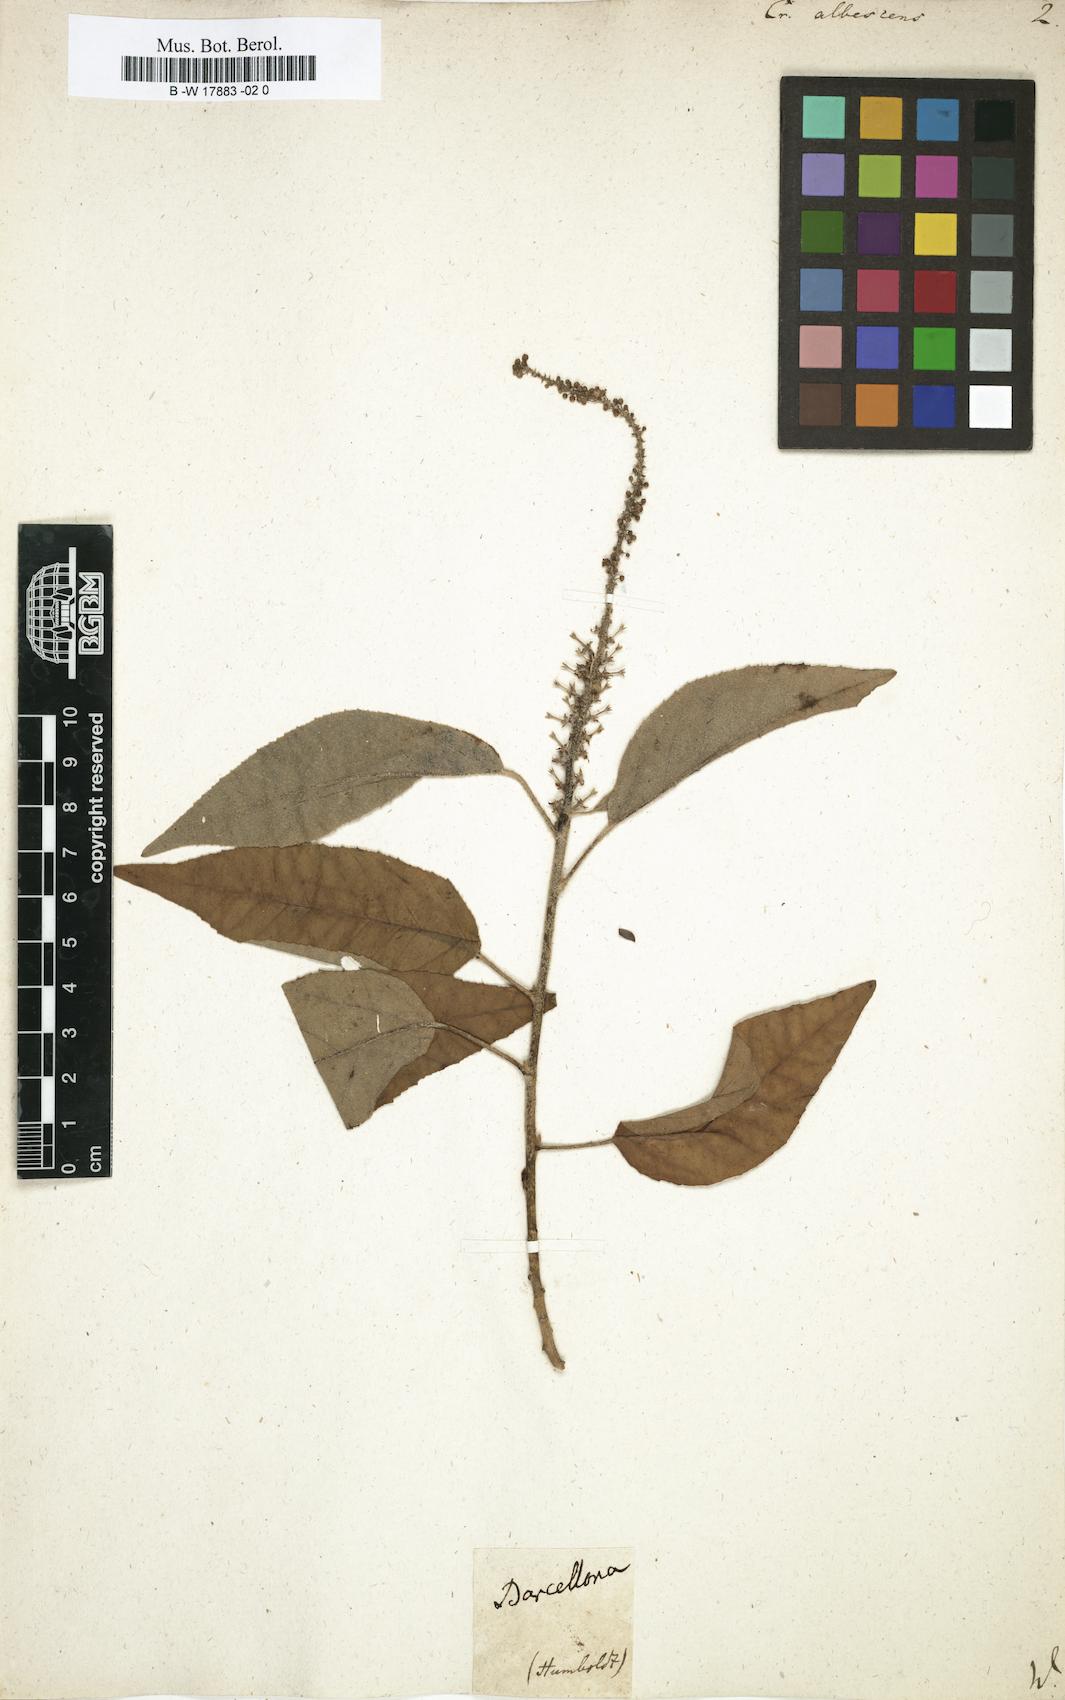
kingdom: Plantae
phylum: Tracheophyta
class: Magnoliopsida
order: Malpighiales
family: Euphorbiaceae
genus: Croton
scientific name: Croton albescens
